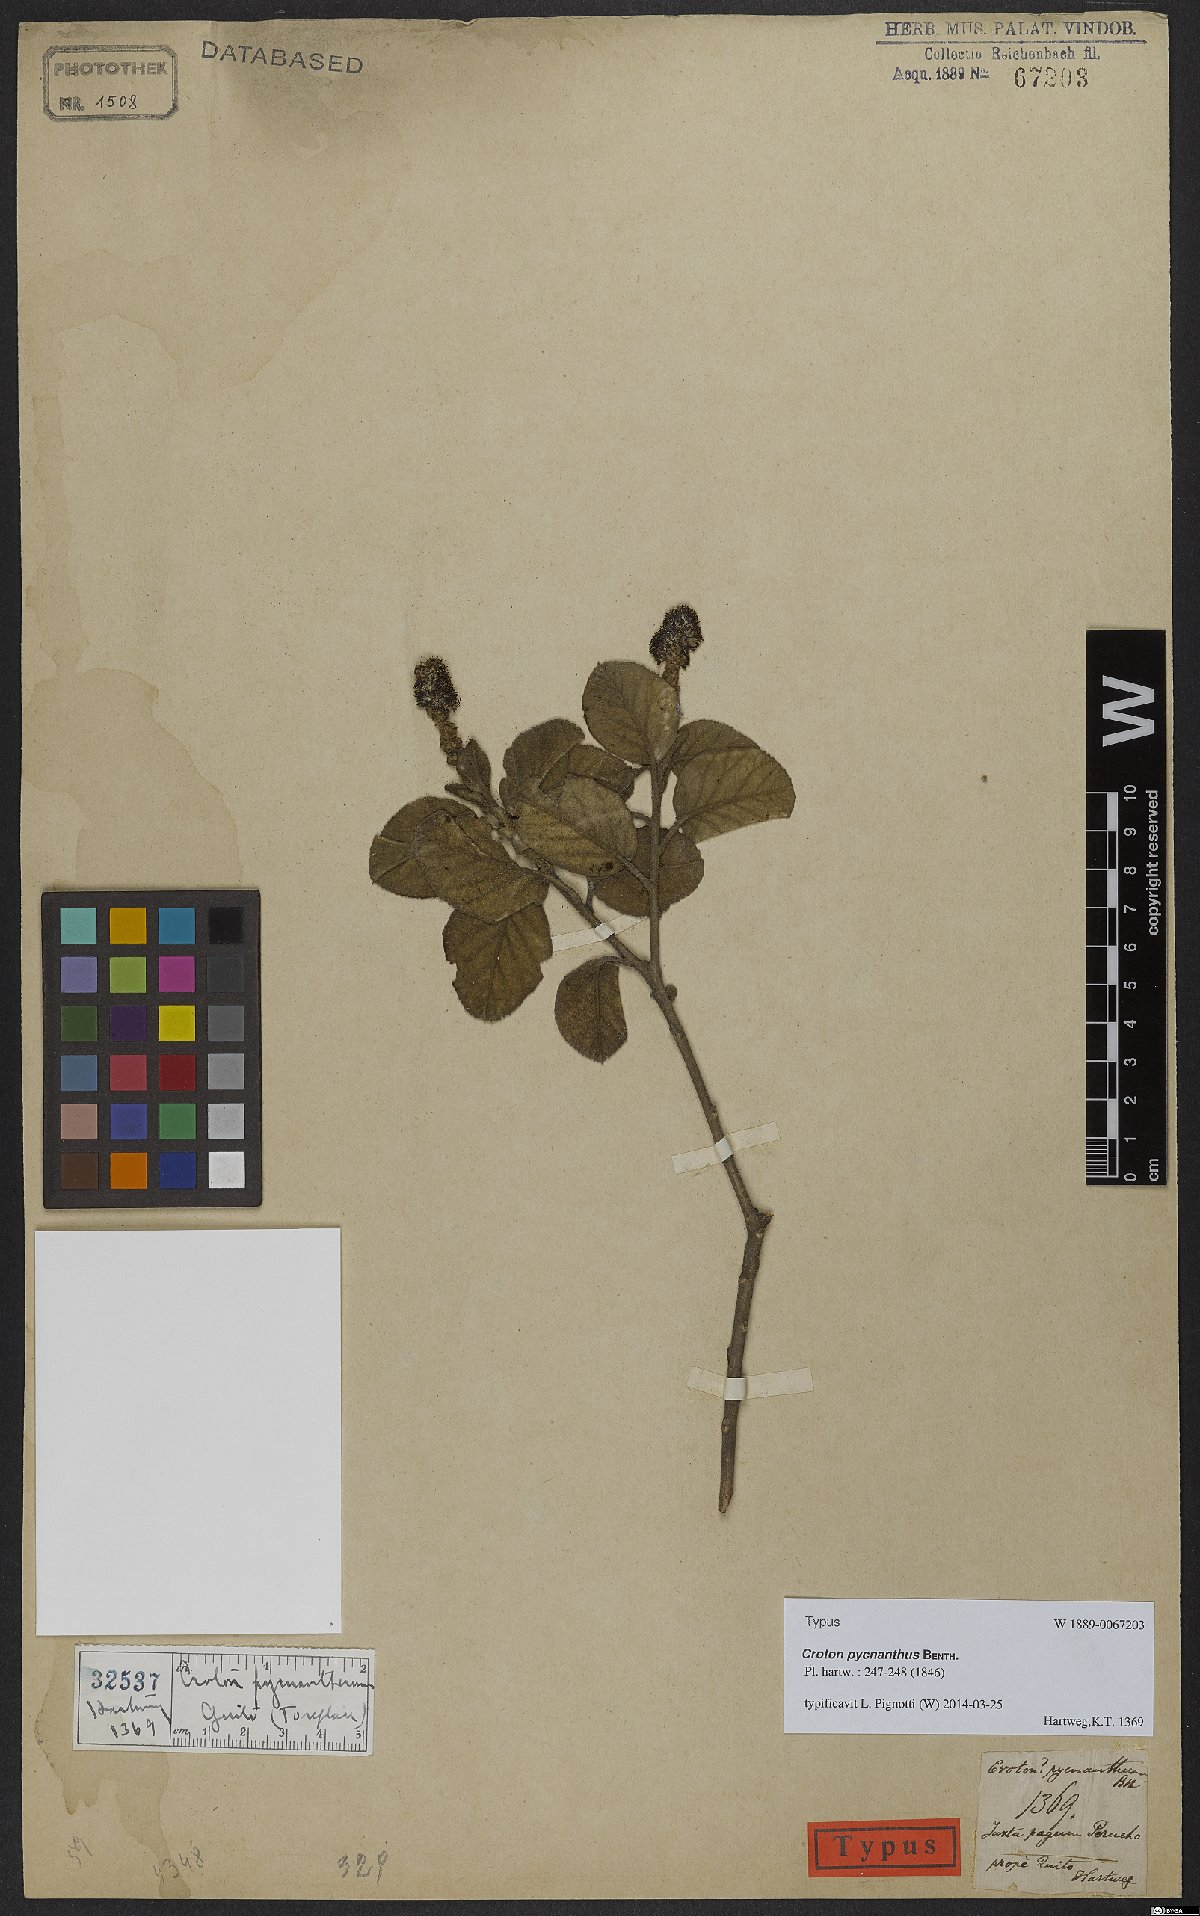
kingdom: Plantae
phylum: Tracheophyta
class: Magnoliopsida
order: Malpighiales
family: Euphorbiaceae
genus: Croton
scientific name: Croton pycnanthus
